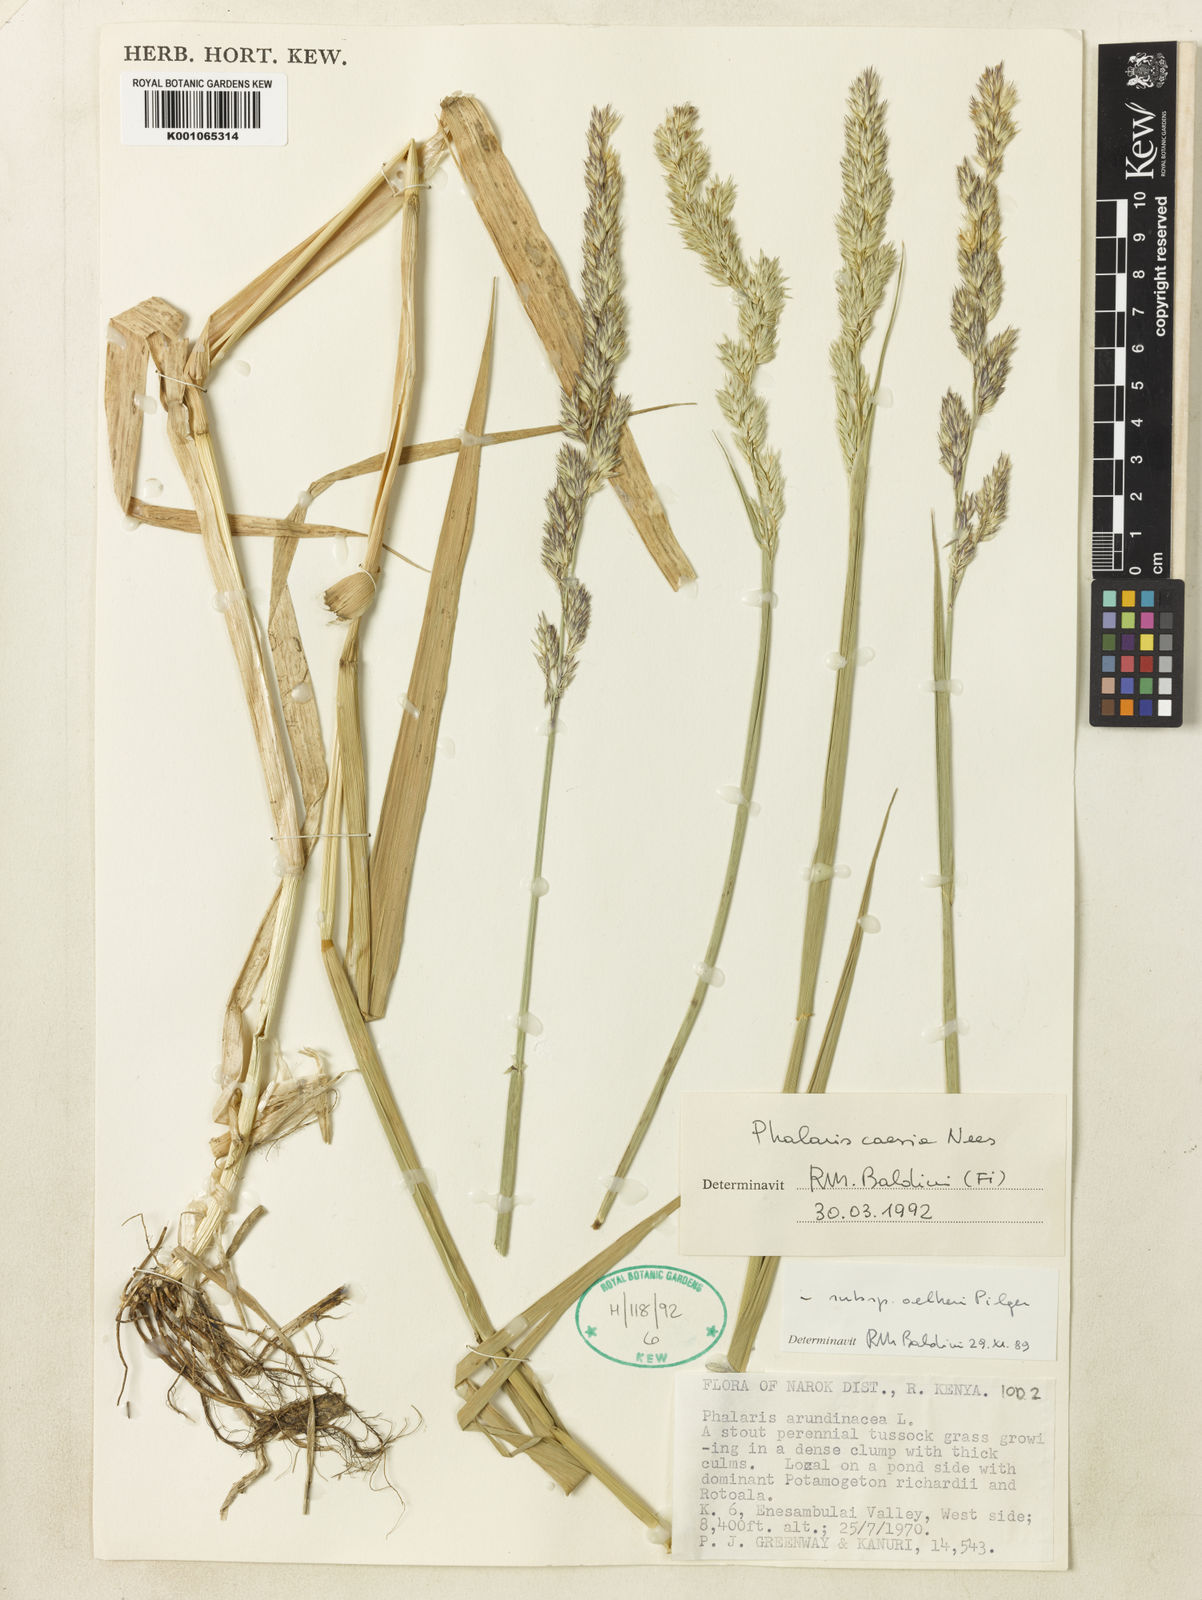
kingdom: Plantae
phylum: Tracheophyta
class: Liliopsida
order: Poales
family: Poaceae
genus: Phalaris
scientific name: Phalaris arundinacea
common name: Reed canary-grass
